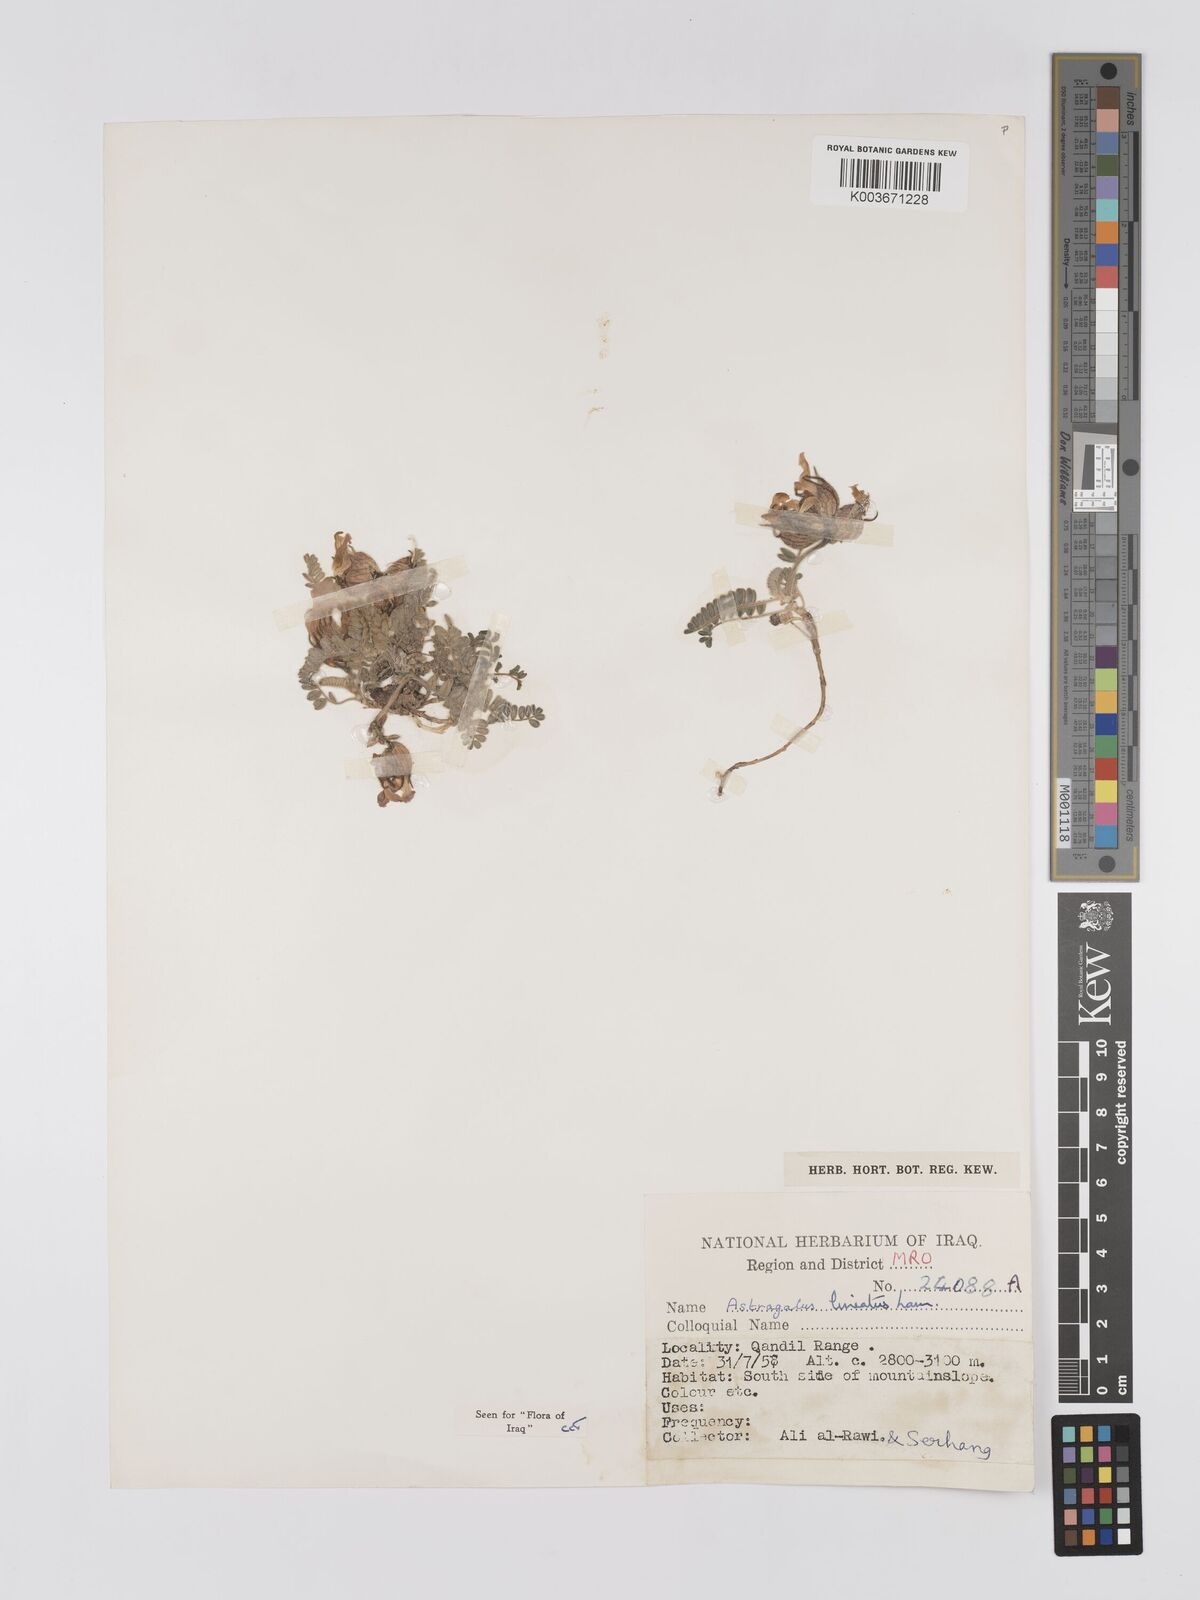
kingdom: Plantae
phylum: Tracheophyta
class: Magnoliopsida
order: Fabales
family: Fabaceae
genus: Astragalus
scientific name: Astragalus lineatus
